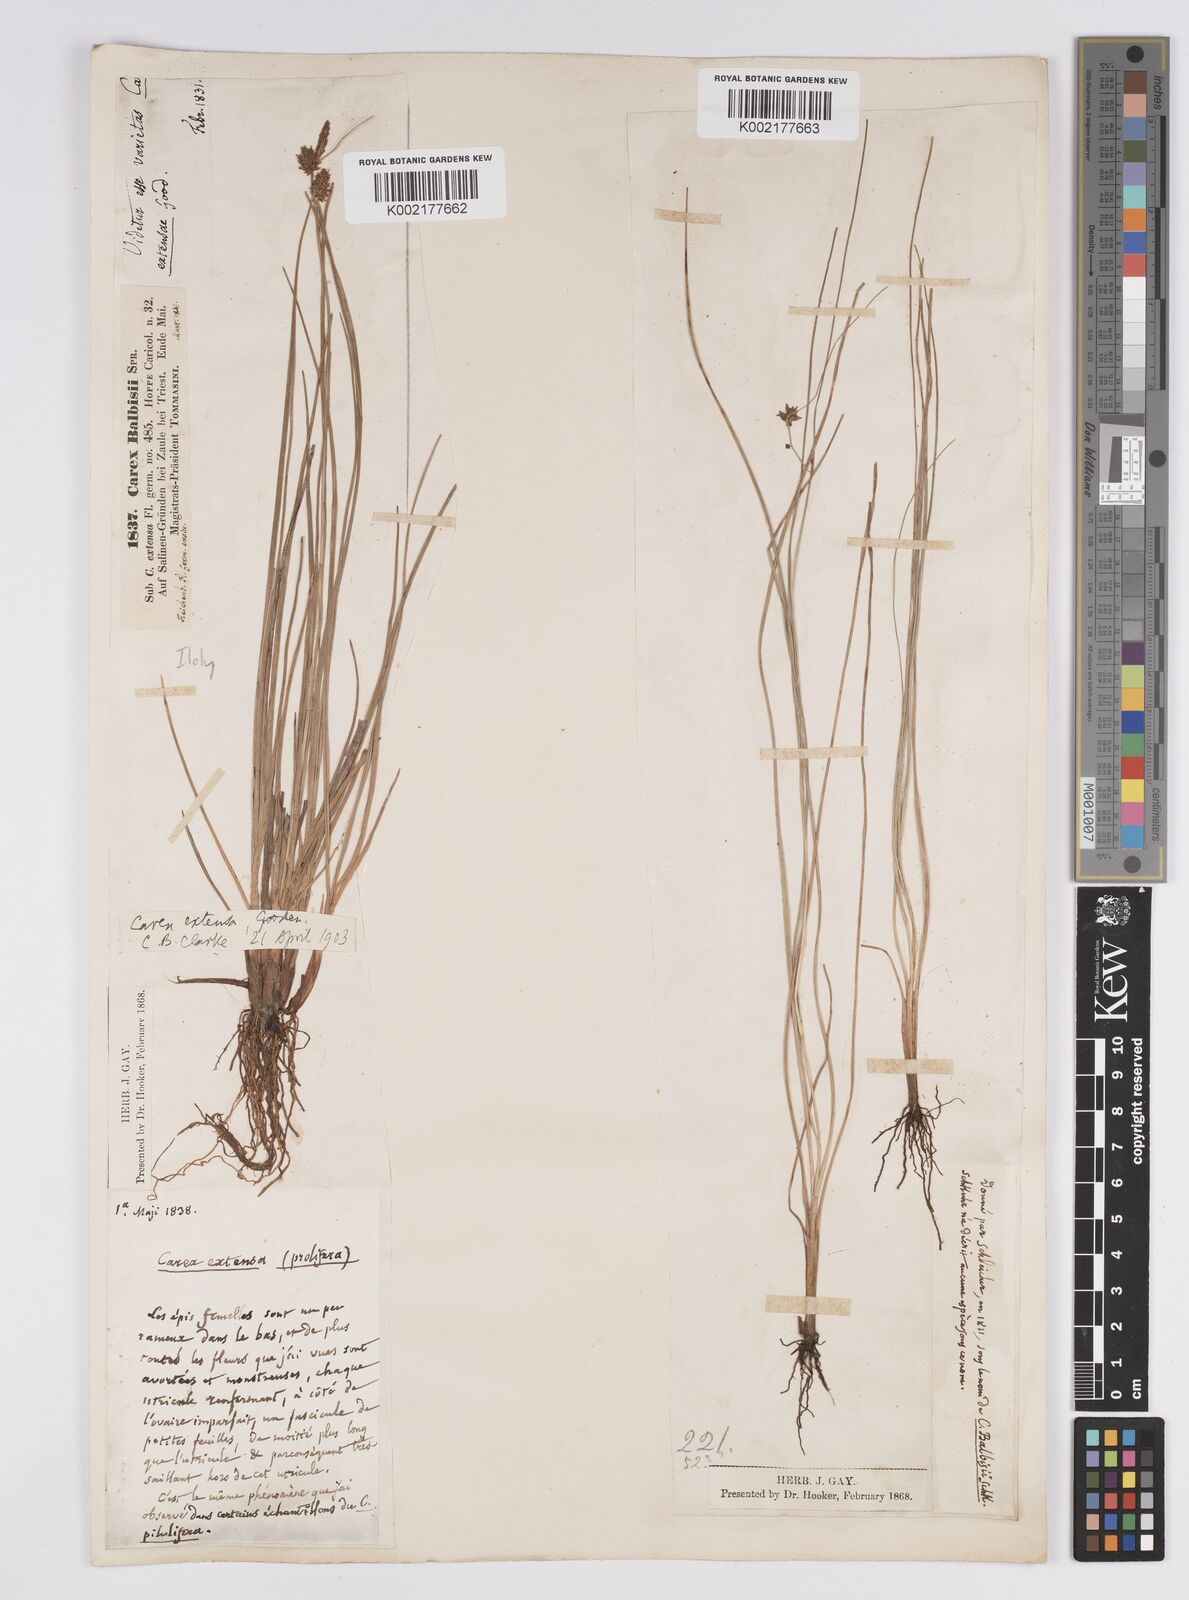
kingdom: Plantae
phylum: Tracheophyta
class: Liliopsida
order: Poales
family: Cyperaceae
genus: Carex
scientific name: Carex extensa
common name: Long-bracted sedge
